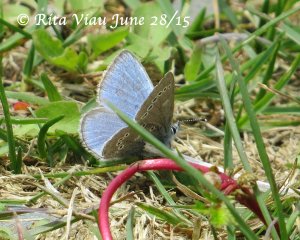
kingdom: Animalia
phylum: Arthropoda
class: Insecta
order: Lepidoptera
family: Lycaenidae
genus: Glaucopsyche
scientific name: Glaucopsyche lygdamus
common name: Silvery Blue
